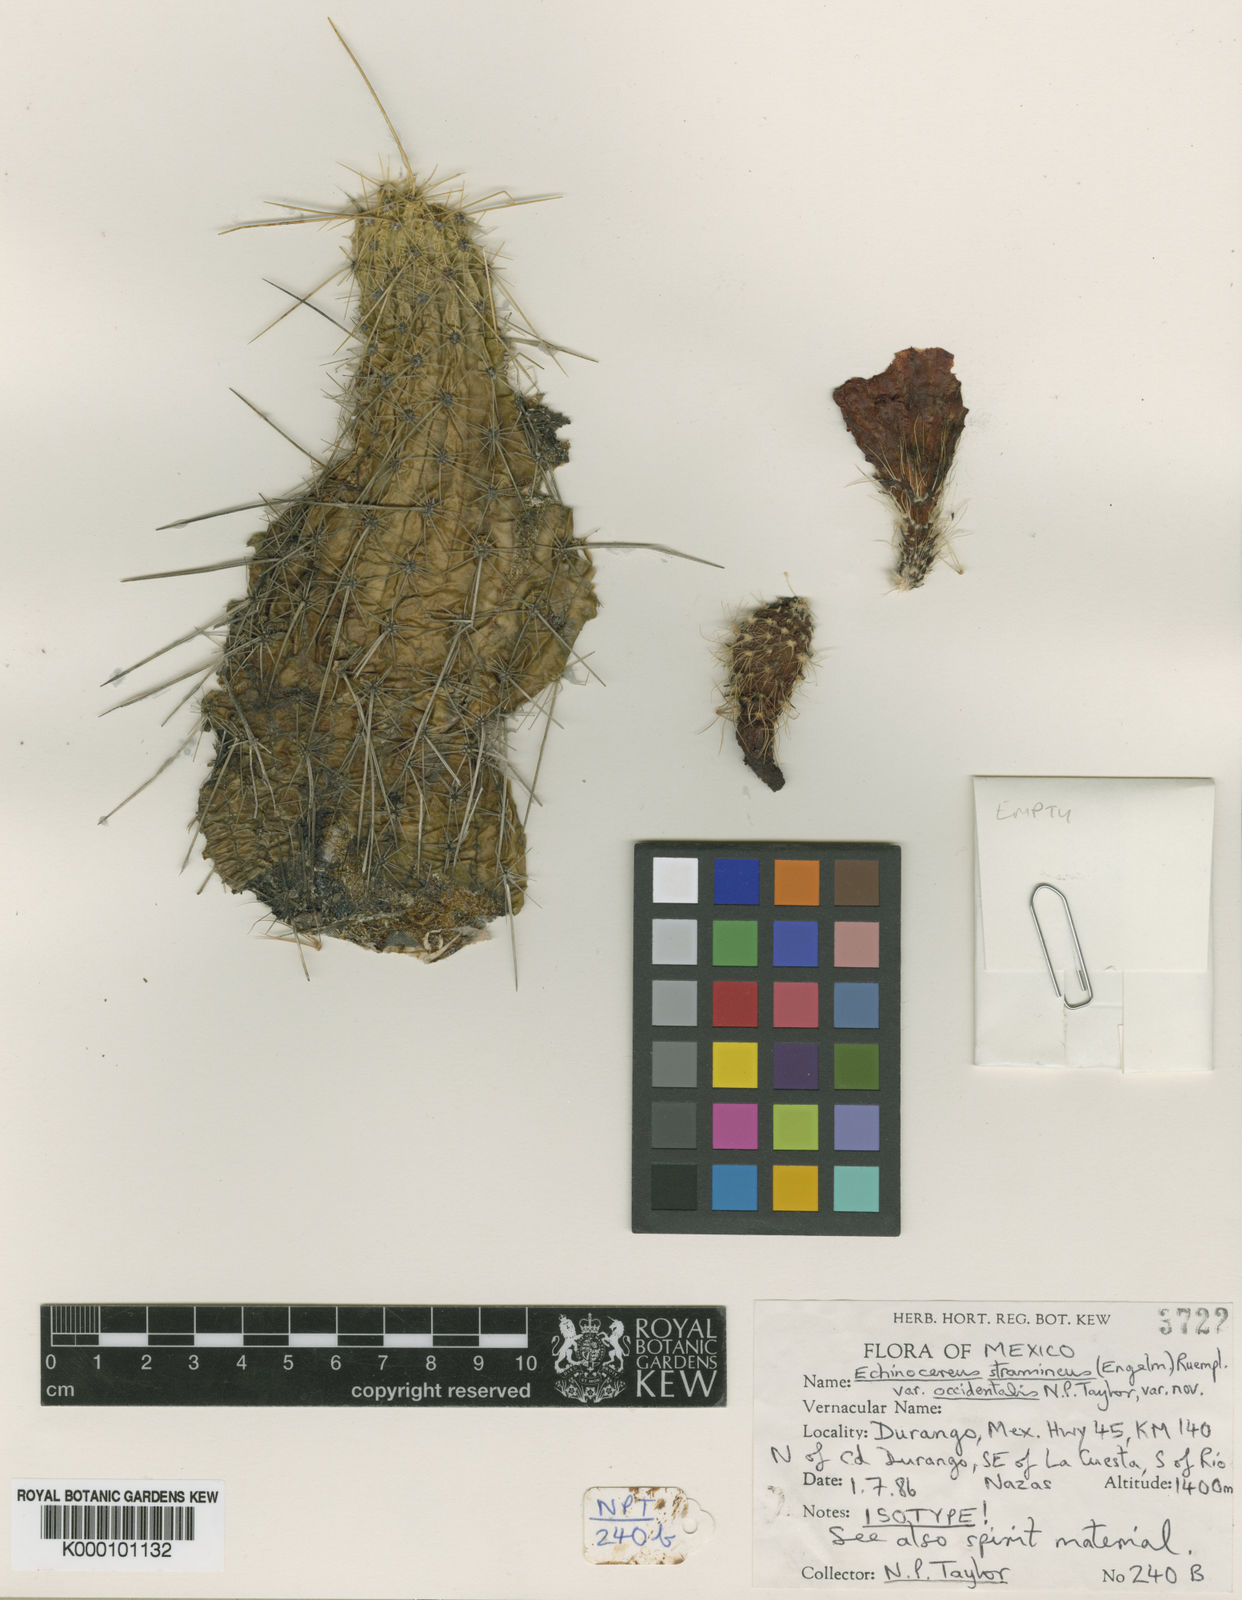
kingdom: Plantae
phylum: Tracheophyta
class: Magnoliopsida
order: Caryophyllales
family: Cactaceae
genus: Echinocereus
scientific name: Echinocereus
